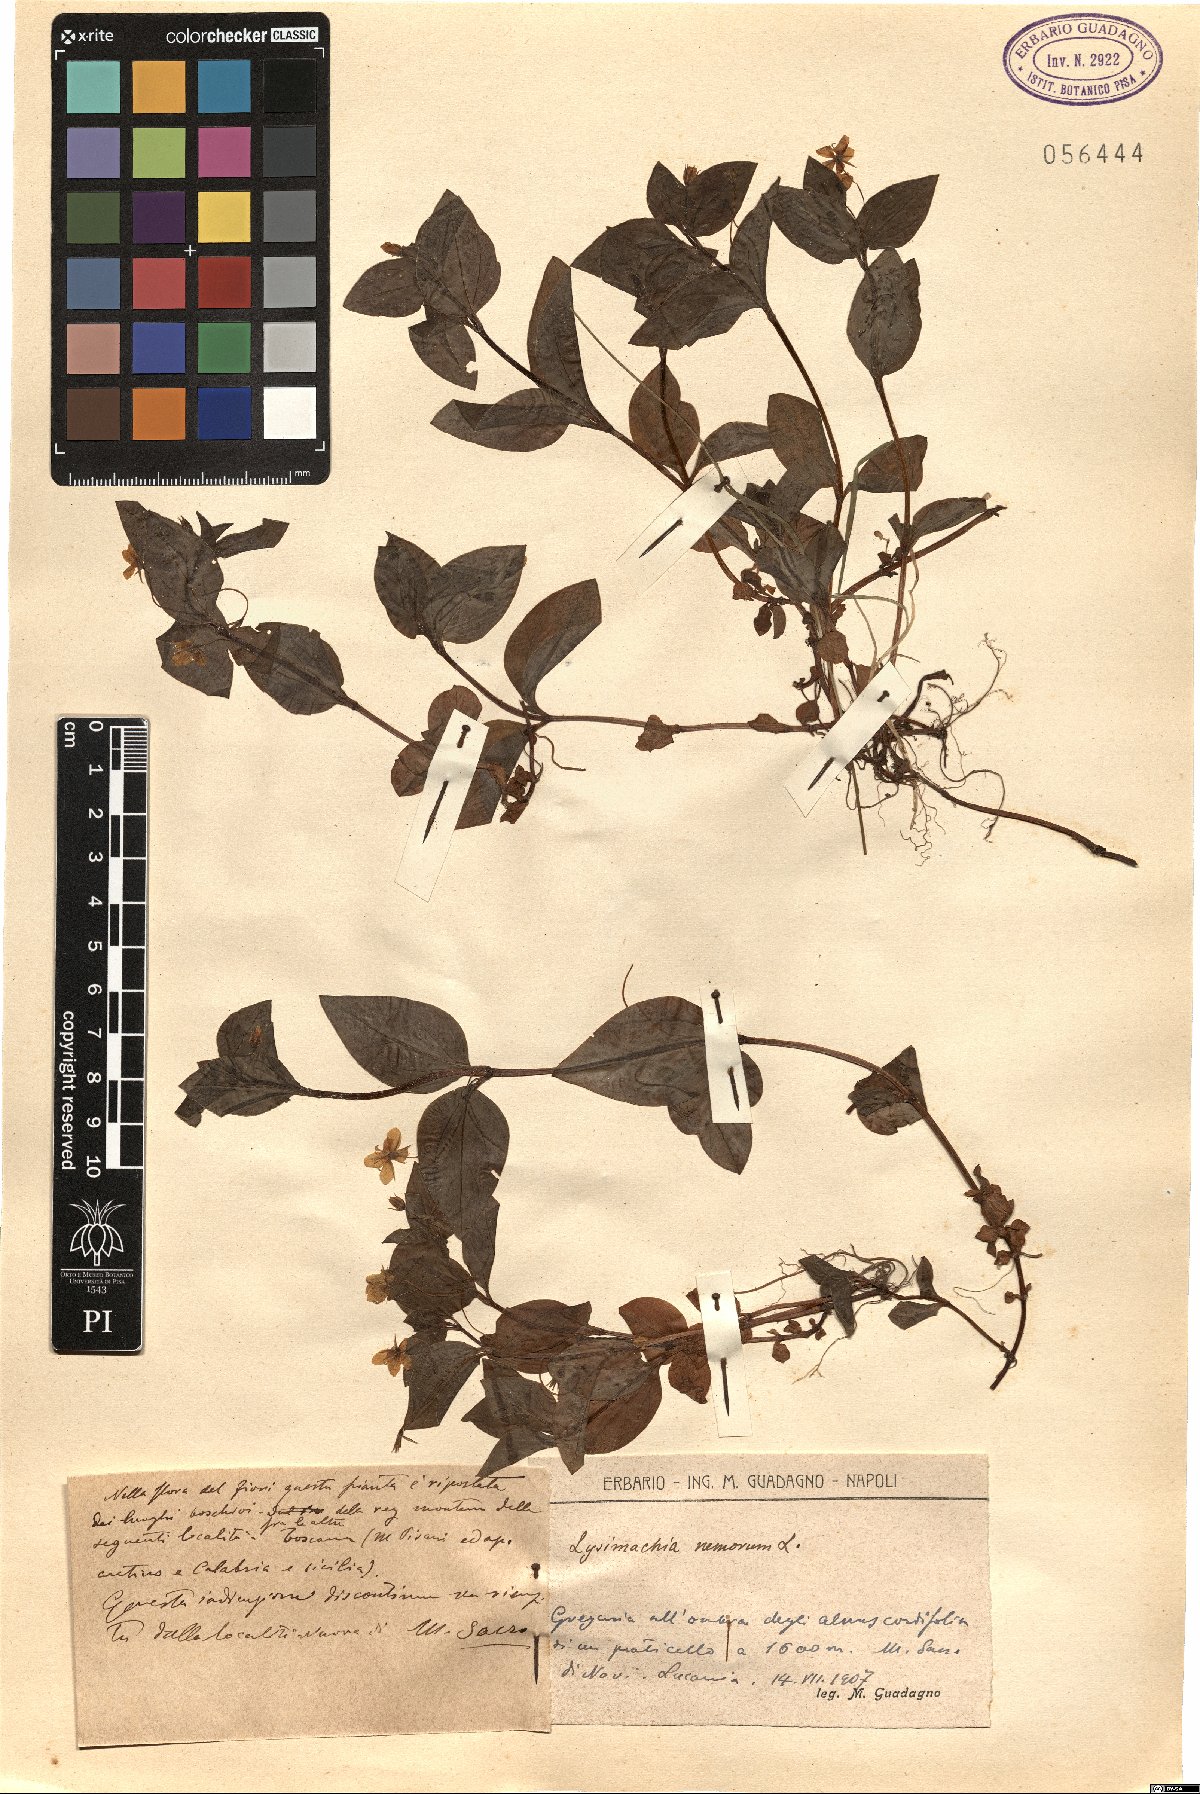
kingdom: Plantae
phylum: Tracheophyta
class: Magnoliopsida
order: Ericales
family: Primulaceae
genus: Lysimachia
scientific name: Lysimachia nemorum
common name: Yellow pimpernel
